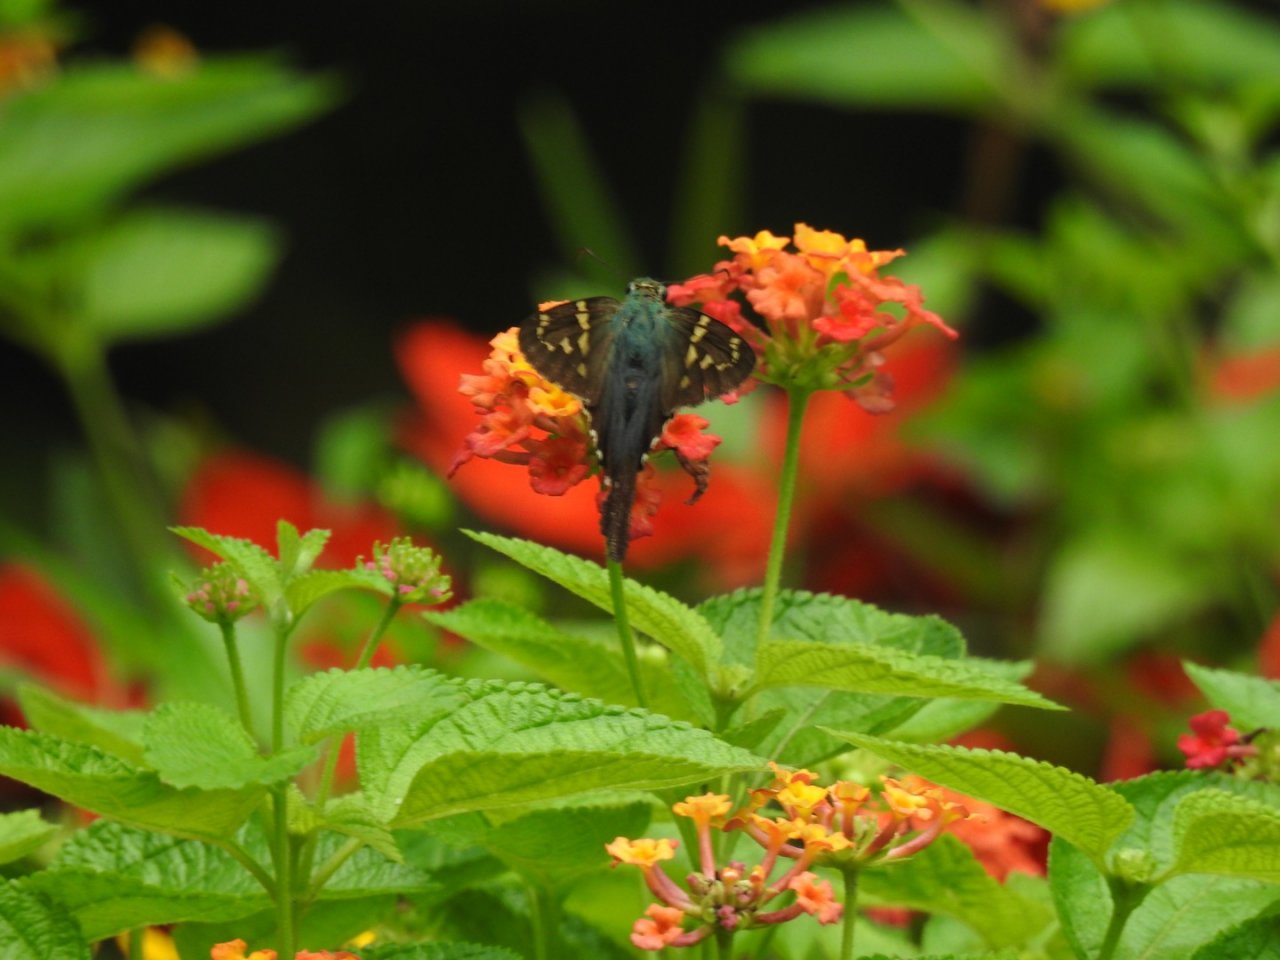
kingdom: Animalia
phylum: Arthropoda
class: Insecta
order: Lepidoptera
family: Hesperiidae
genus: Urbanus
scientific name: Urbanus proteus
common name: Long-tailed Skipper
